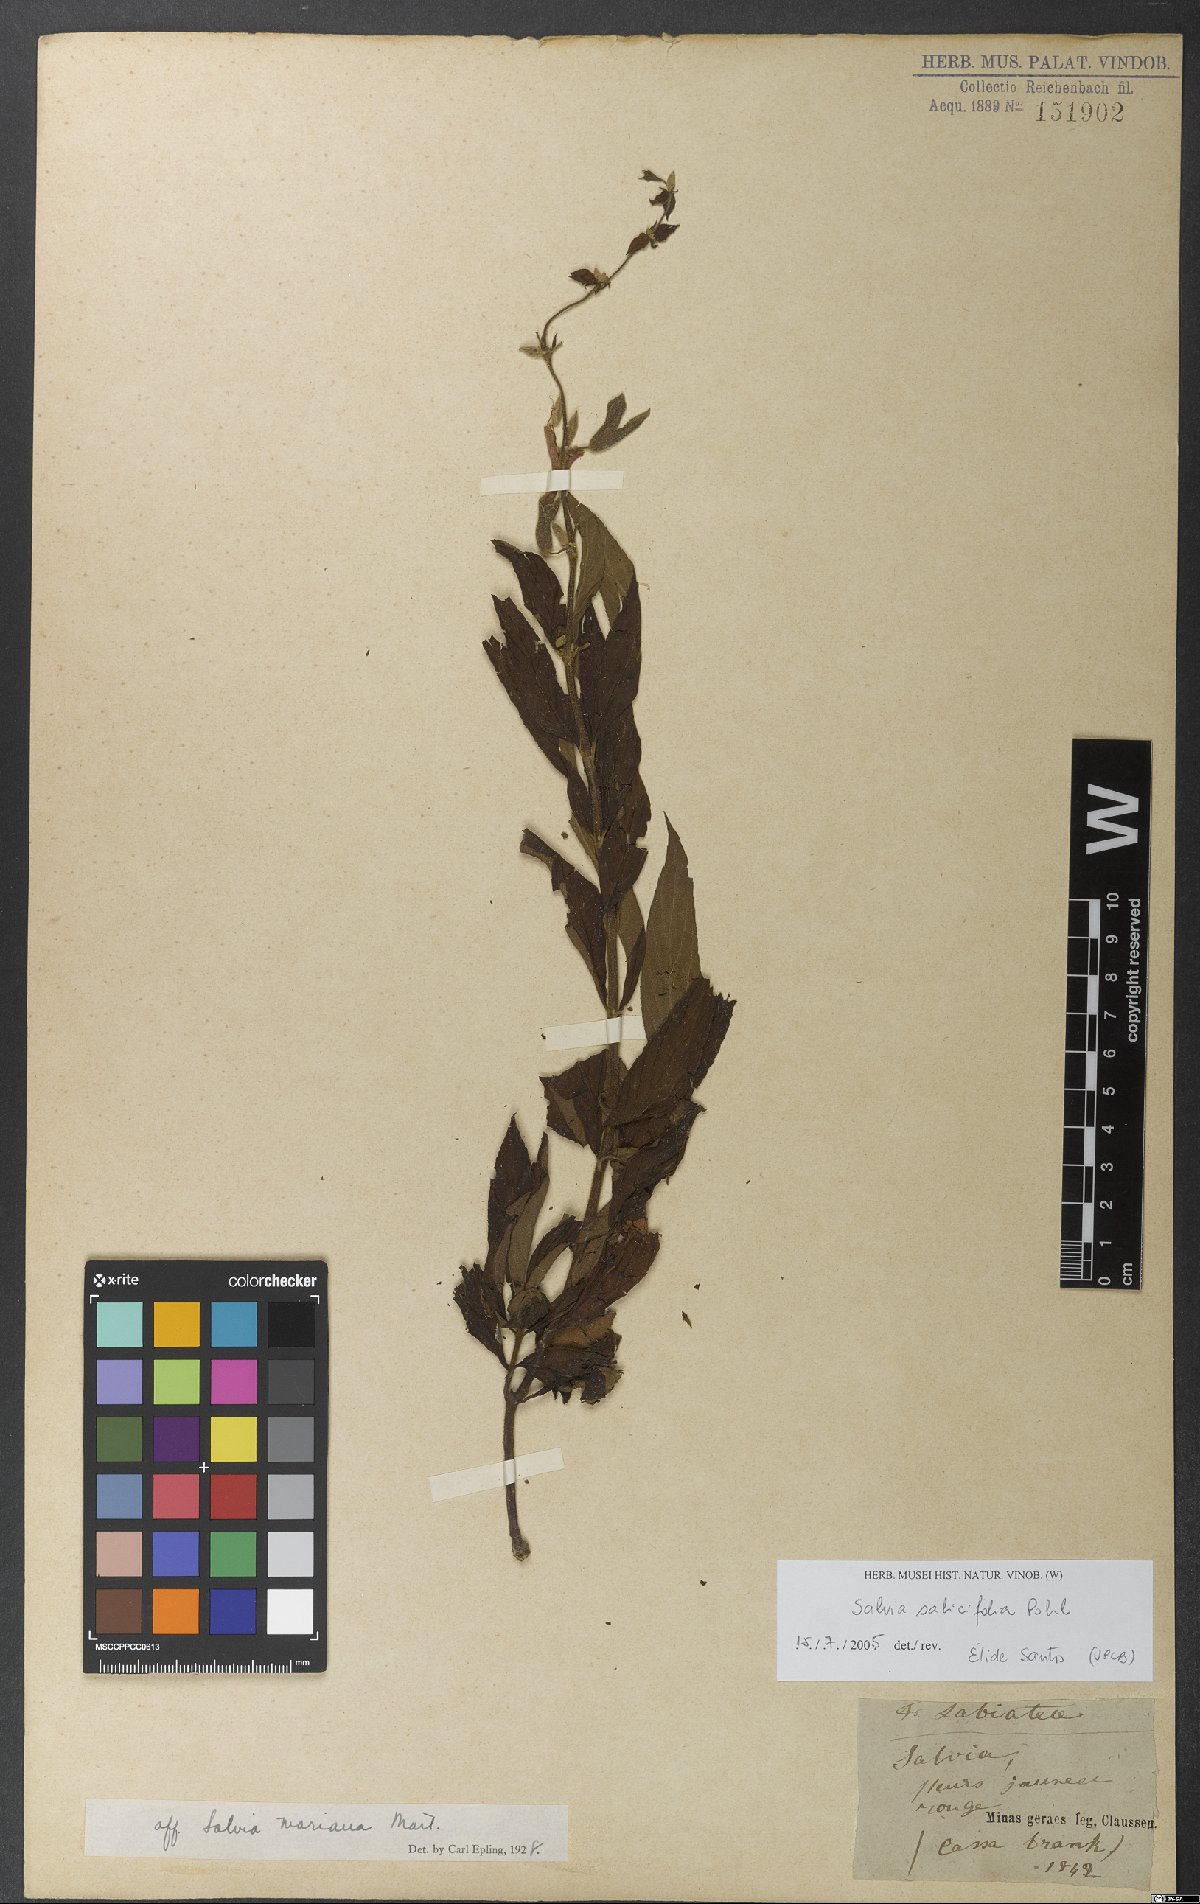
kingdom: Plantae
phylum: Tracheophyta
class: Magnoliopsida
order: Lamiales
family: Lamiaceae
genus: Salvia
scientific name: Salvia salicifolia
